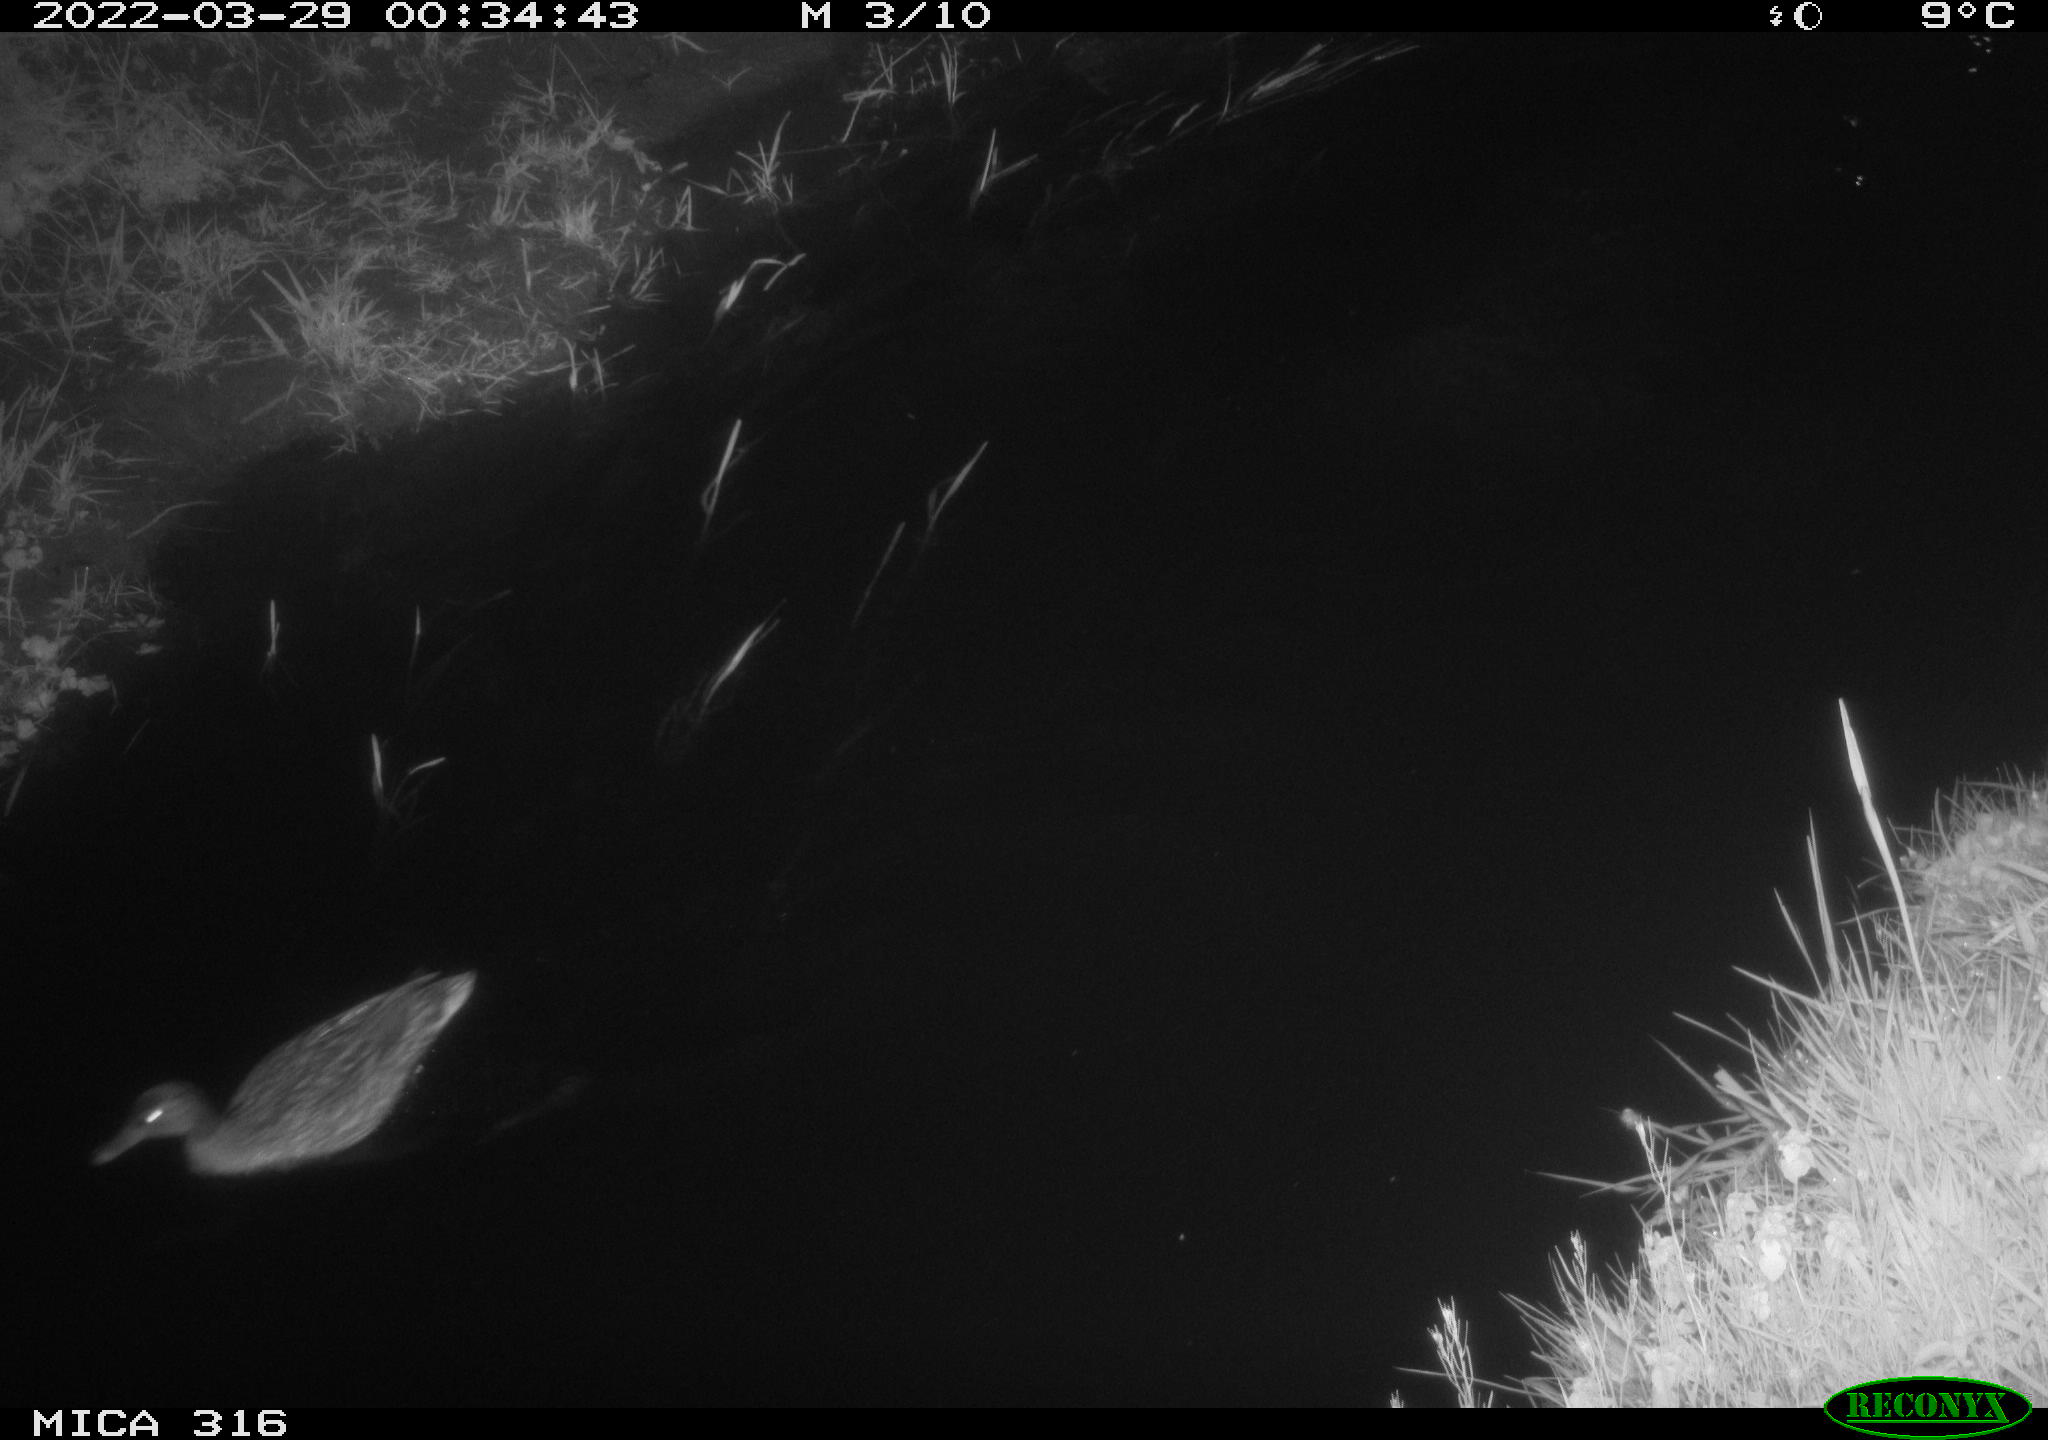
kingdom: Animalia
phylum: Chordata
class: Aves
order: Anseriformes
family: Anatidae
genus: Anas
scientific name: Anas platyrhynchos
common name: Mallard
